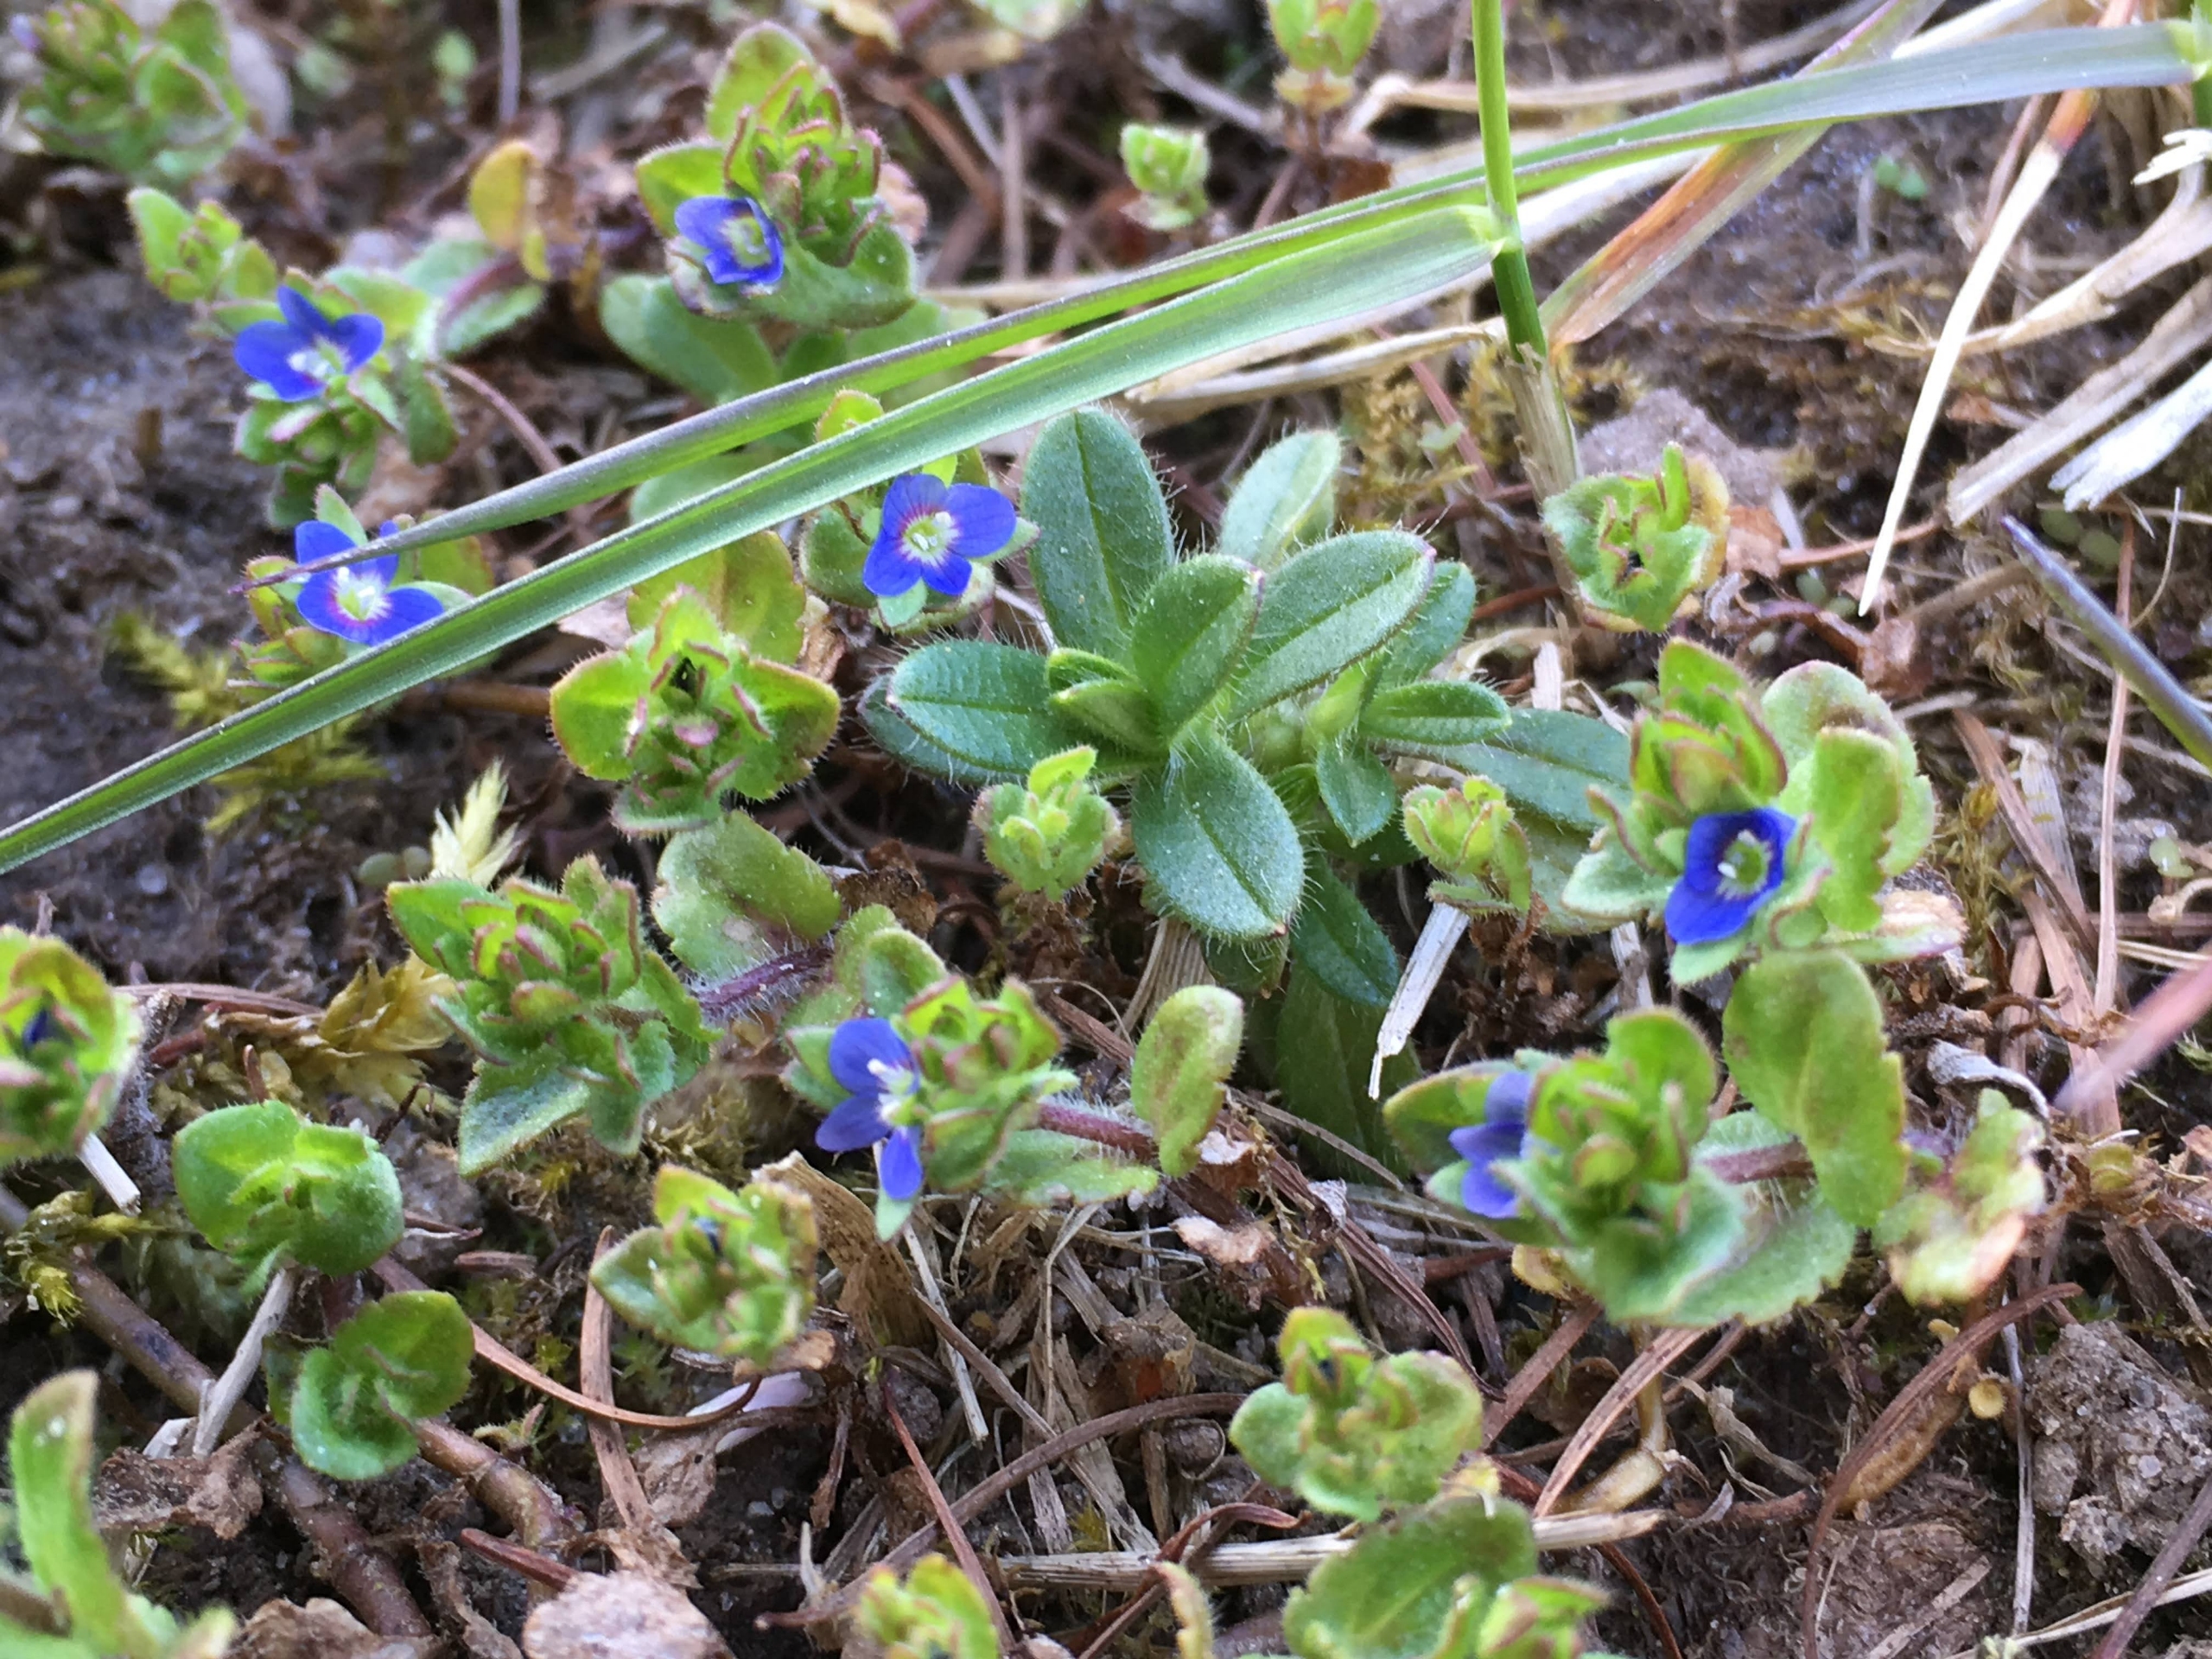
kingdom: Plantae
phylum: Tracheophyta
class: Magnoliopsida
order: Lamiales
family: Plantaginaceae
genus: Veronica
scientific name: Veronica arvensis
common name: Mark-ærenpris
